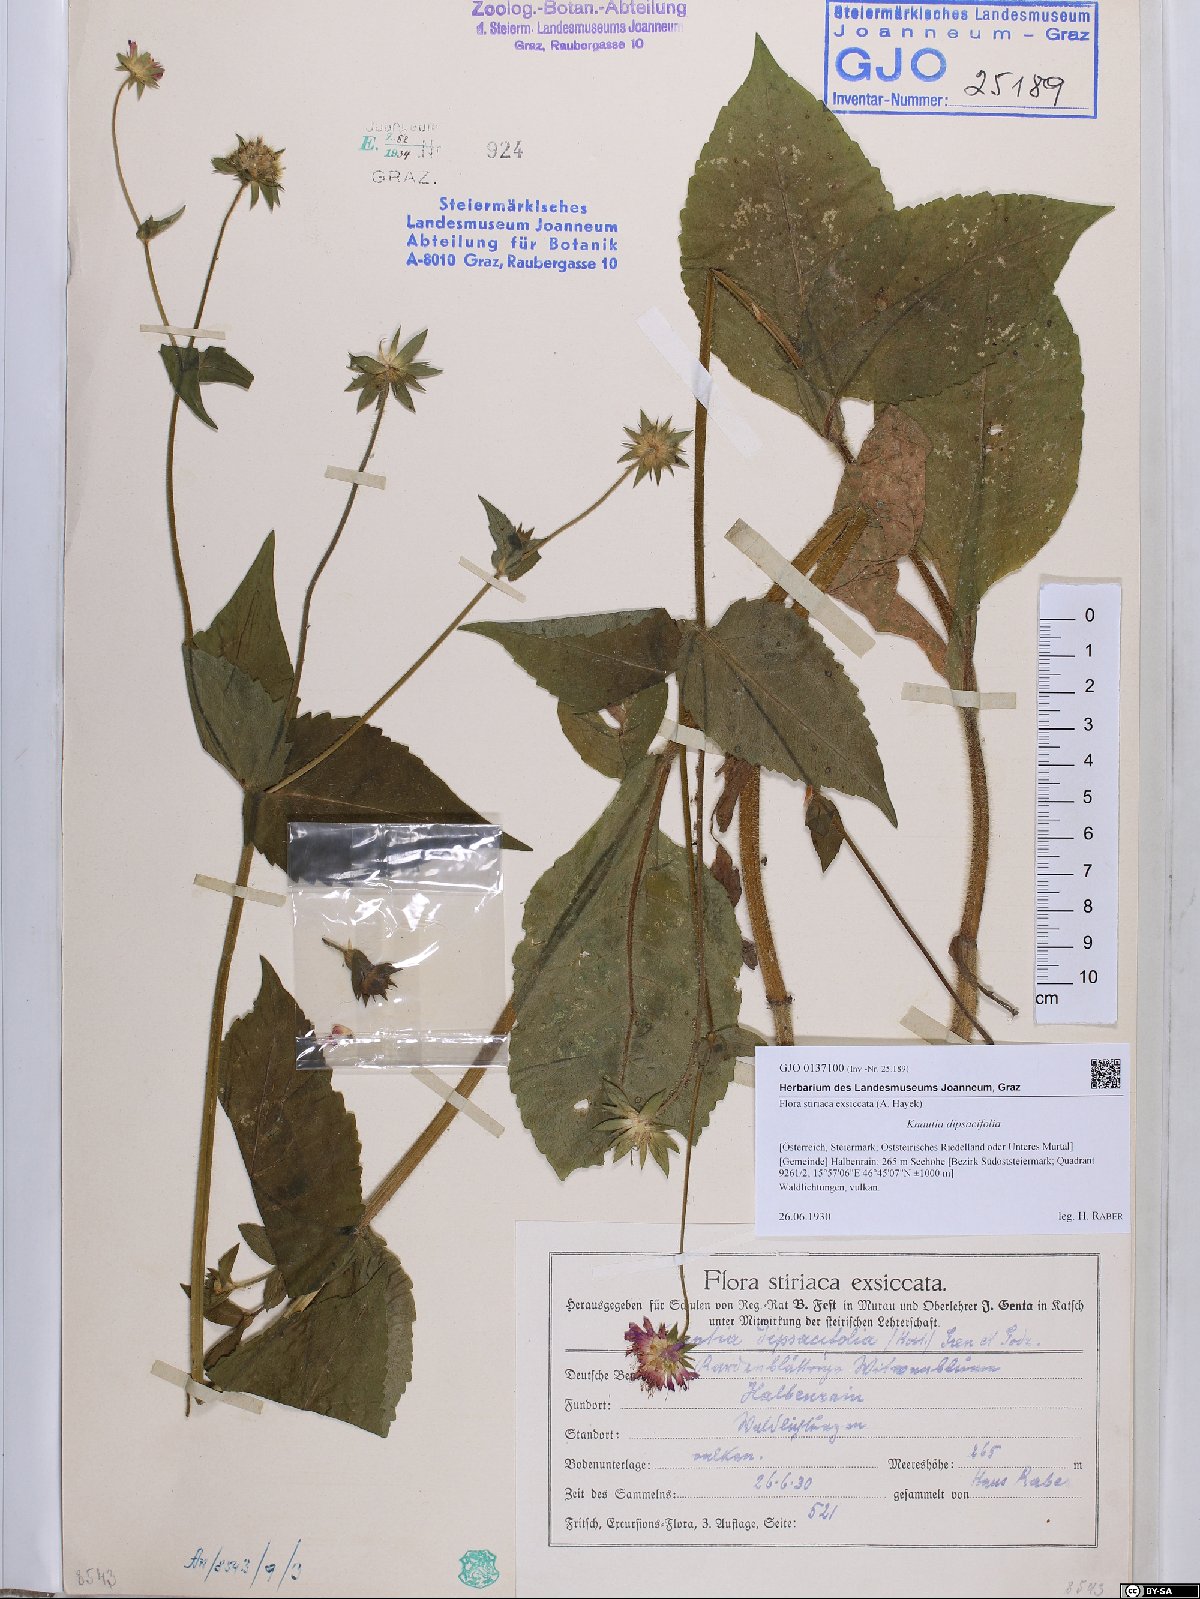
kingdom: Plantae
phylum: Tracheophyta
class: Magnoliopsida
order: Dipsacales
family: Caprifoliaceae
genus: Knautia
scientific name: Knautia dipsacifolia
